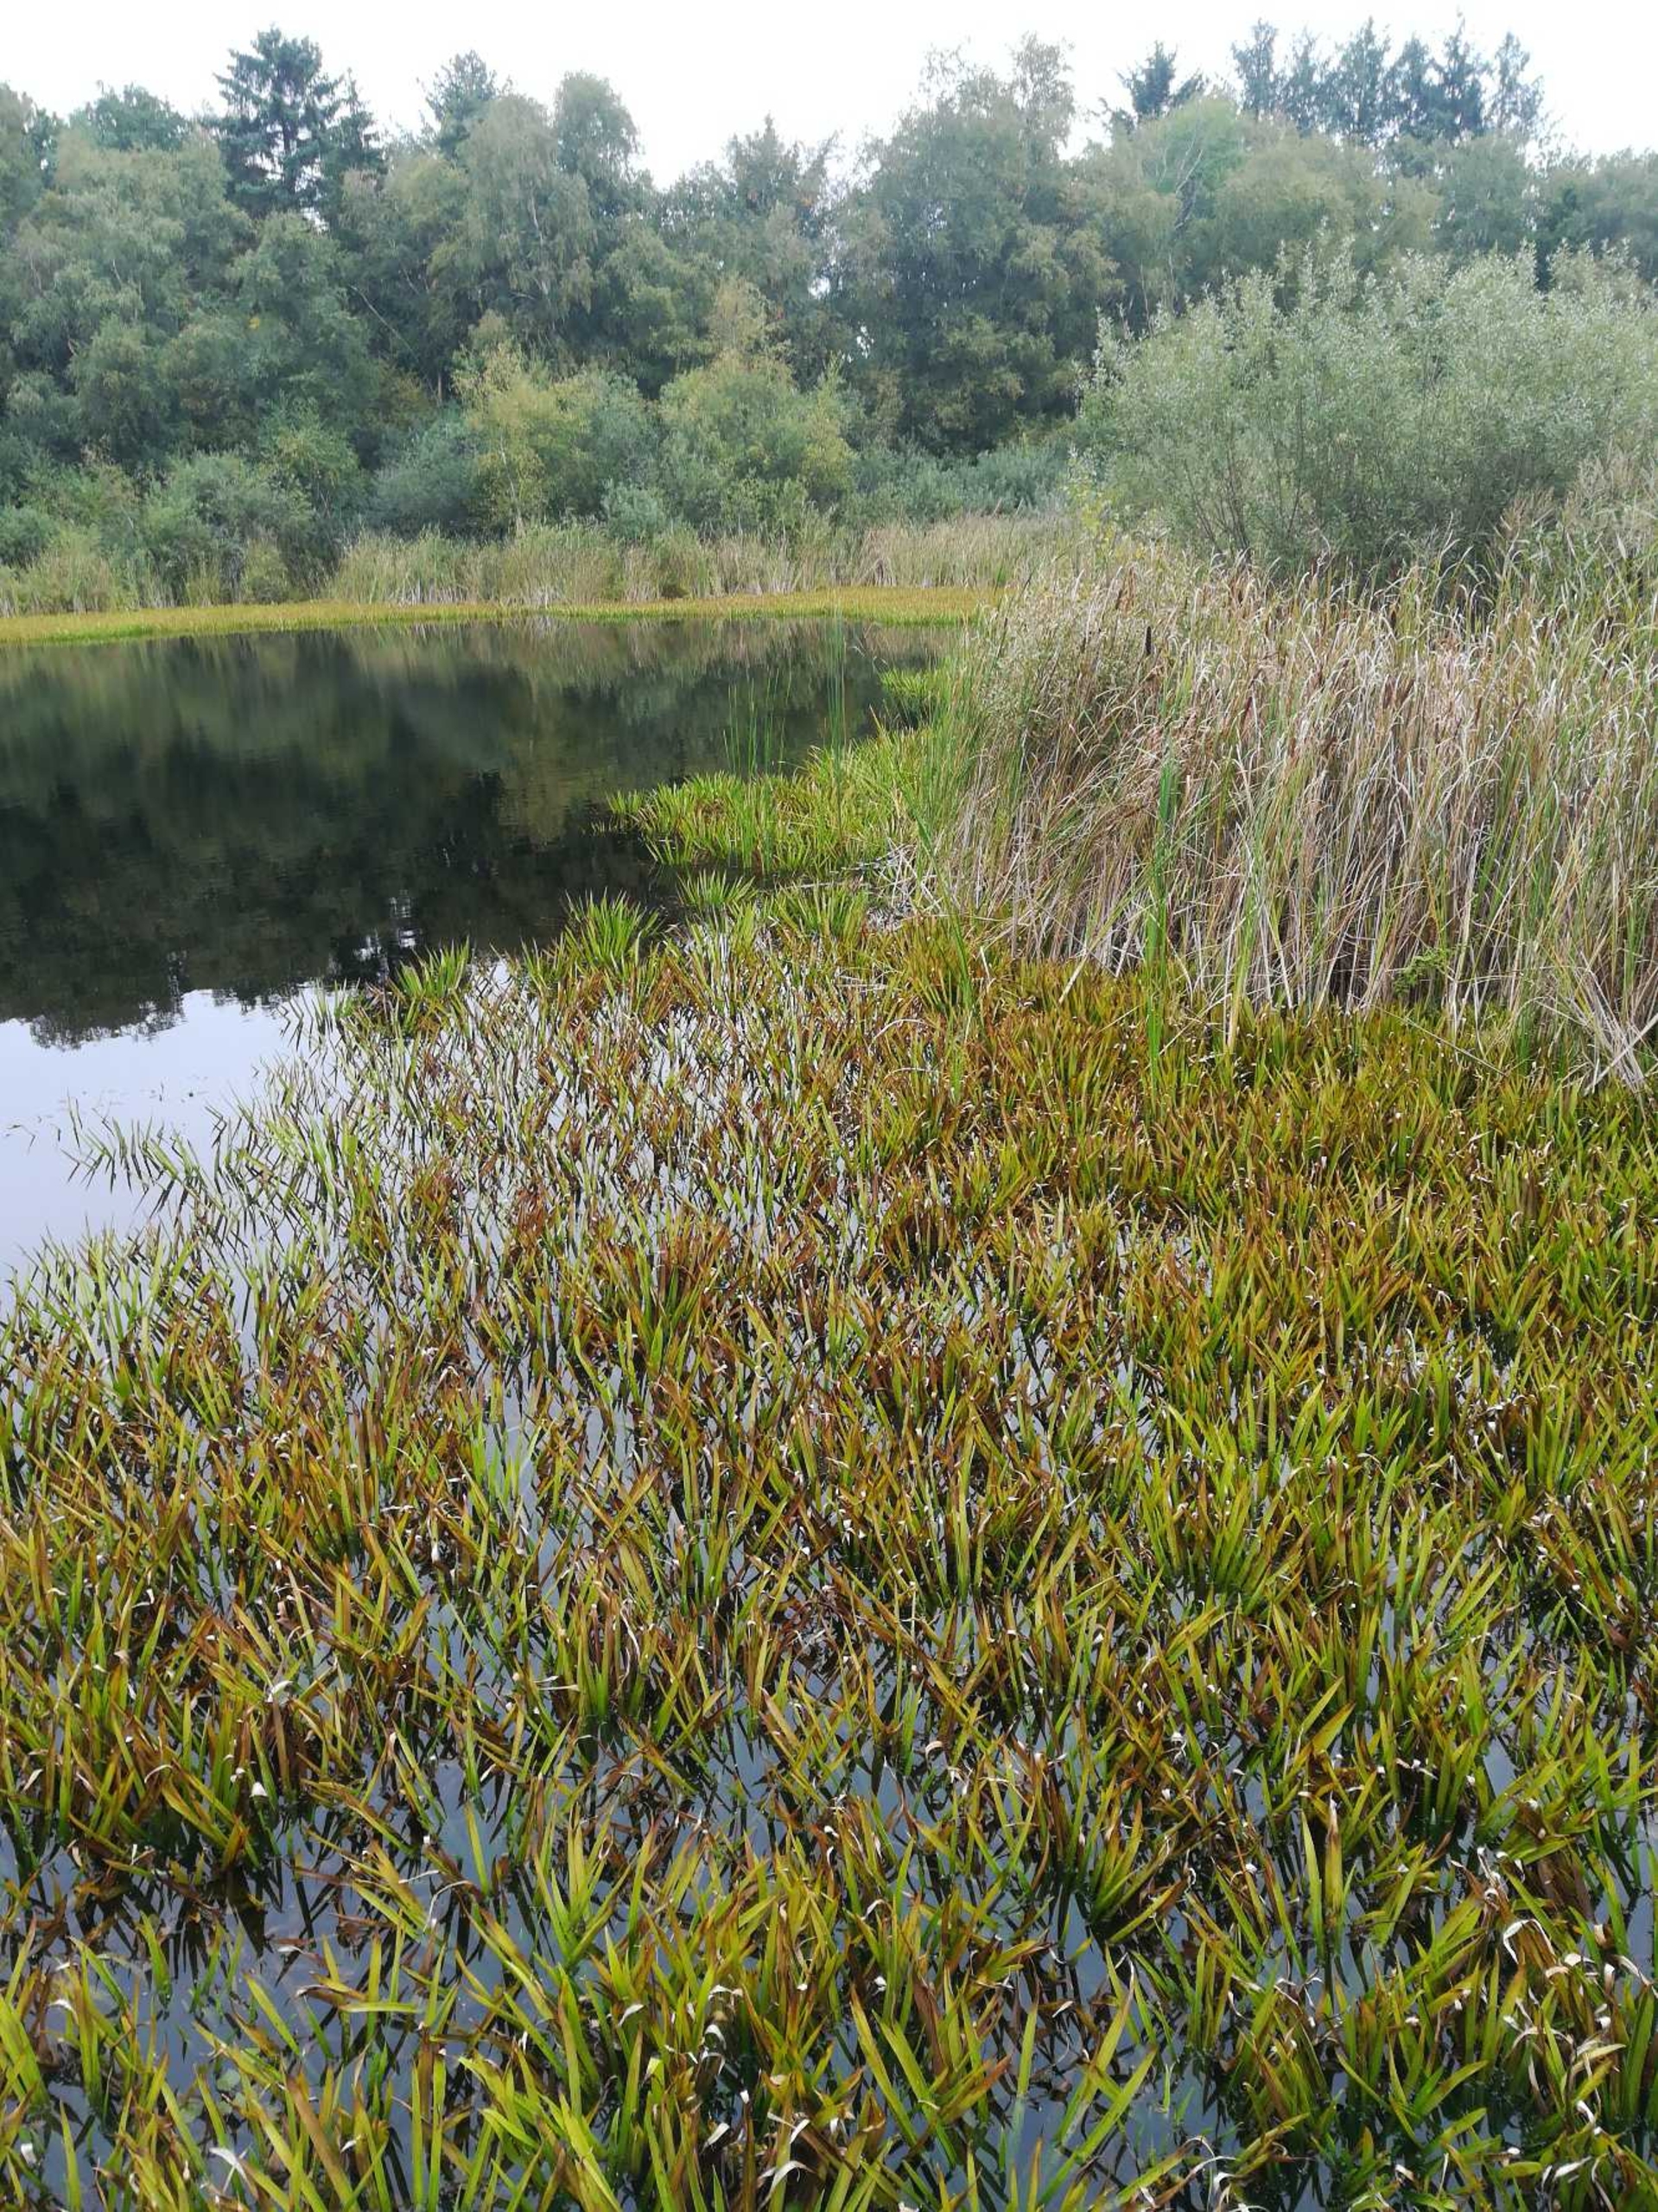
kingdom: Plantae
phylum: Tracheophyta
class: Liliopsida
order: Alismatales
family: Hydrocharitaceae
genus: Stratiotes
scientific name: Stratiotes aloides
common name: Krebseklo
